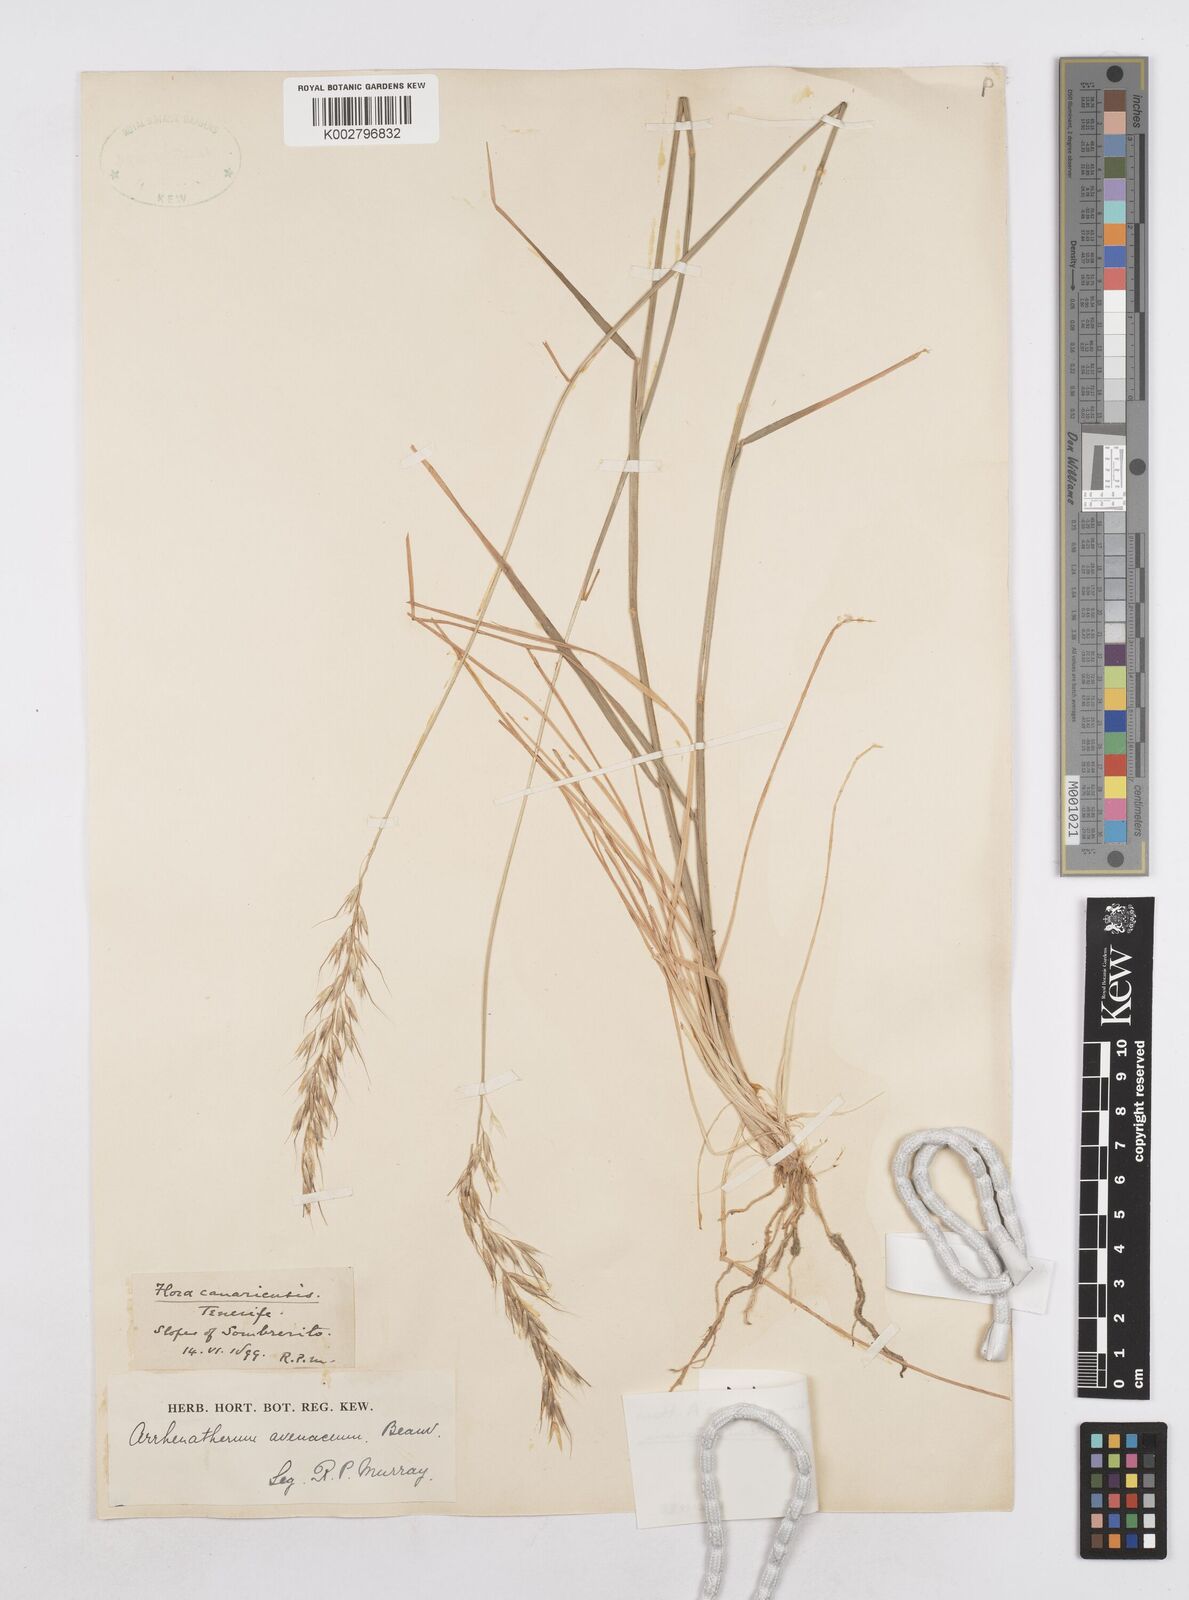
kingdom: Plantae
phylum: Tracheophyta
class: Liliopsida
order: Poales
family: Poaceae
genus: Arrhenatherum
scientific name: Arrhenatherum calderae
